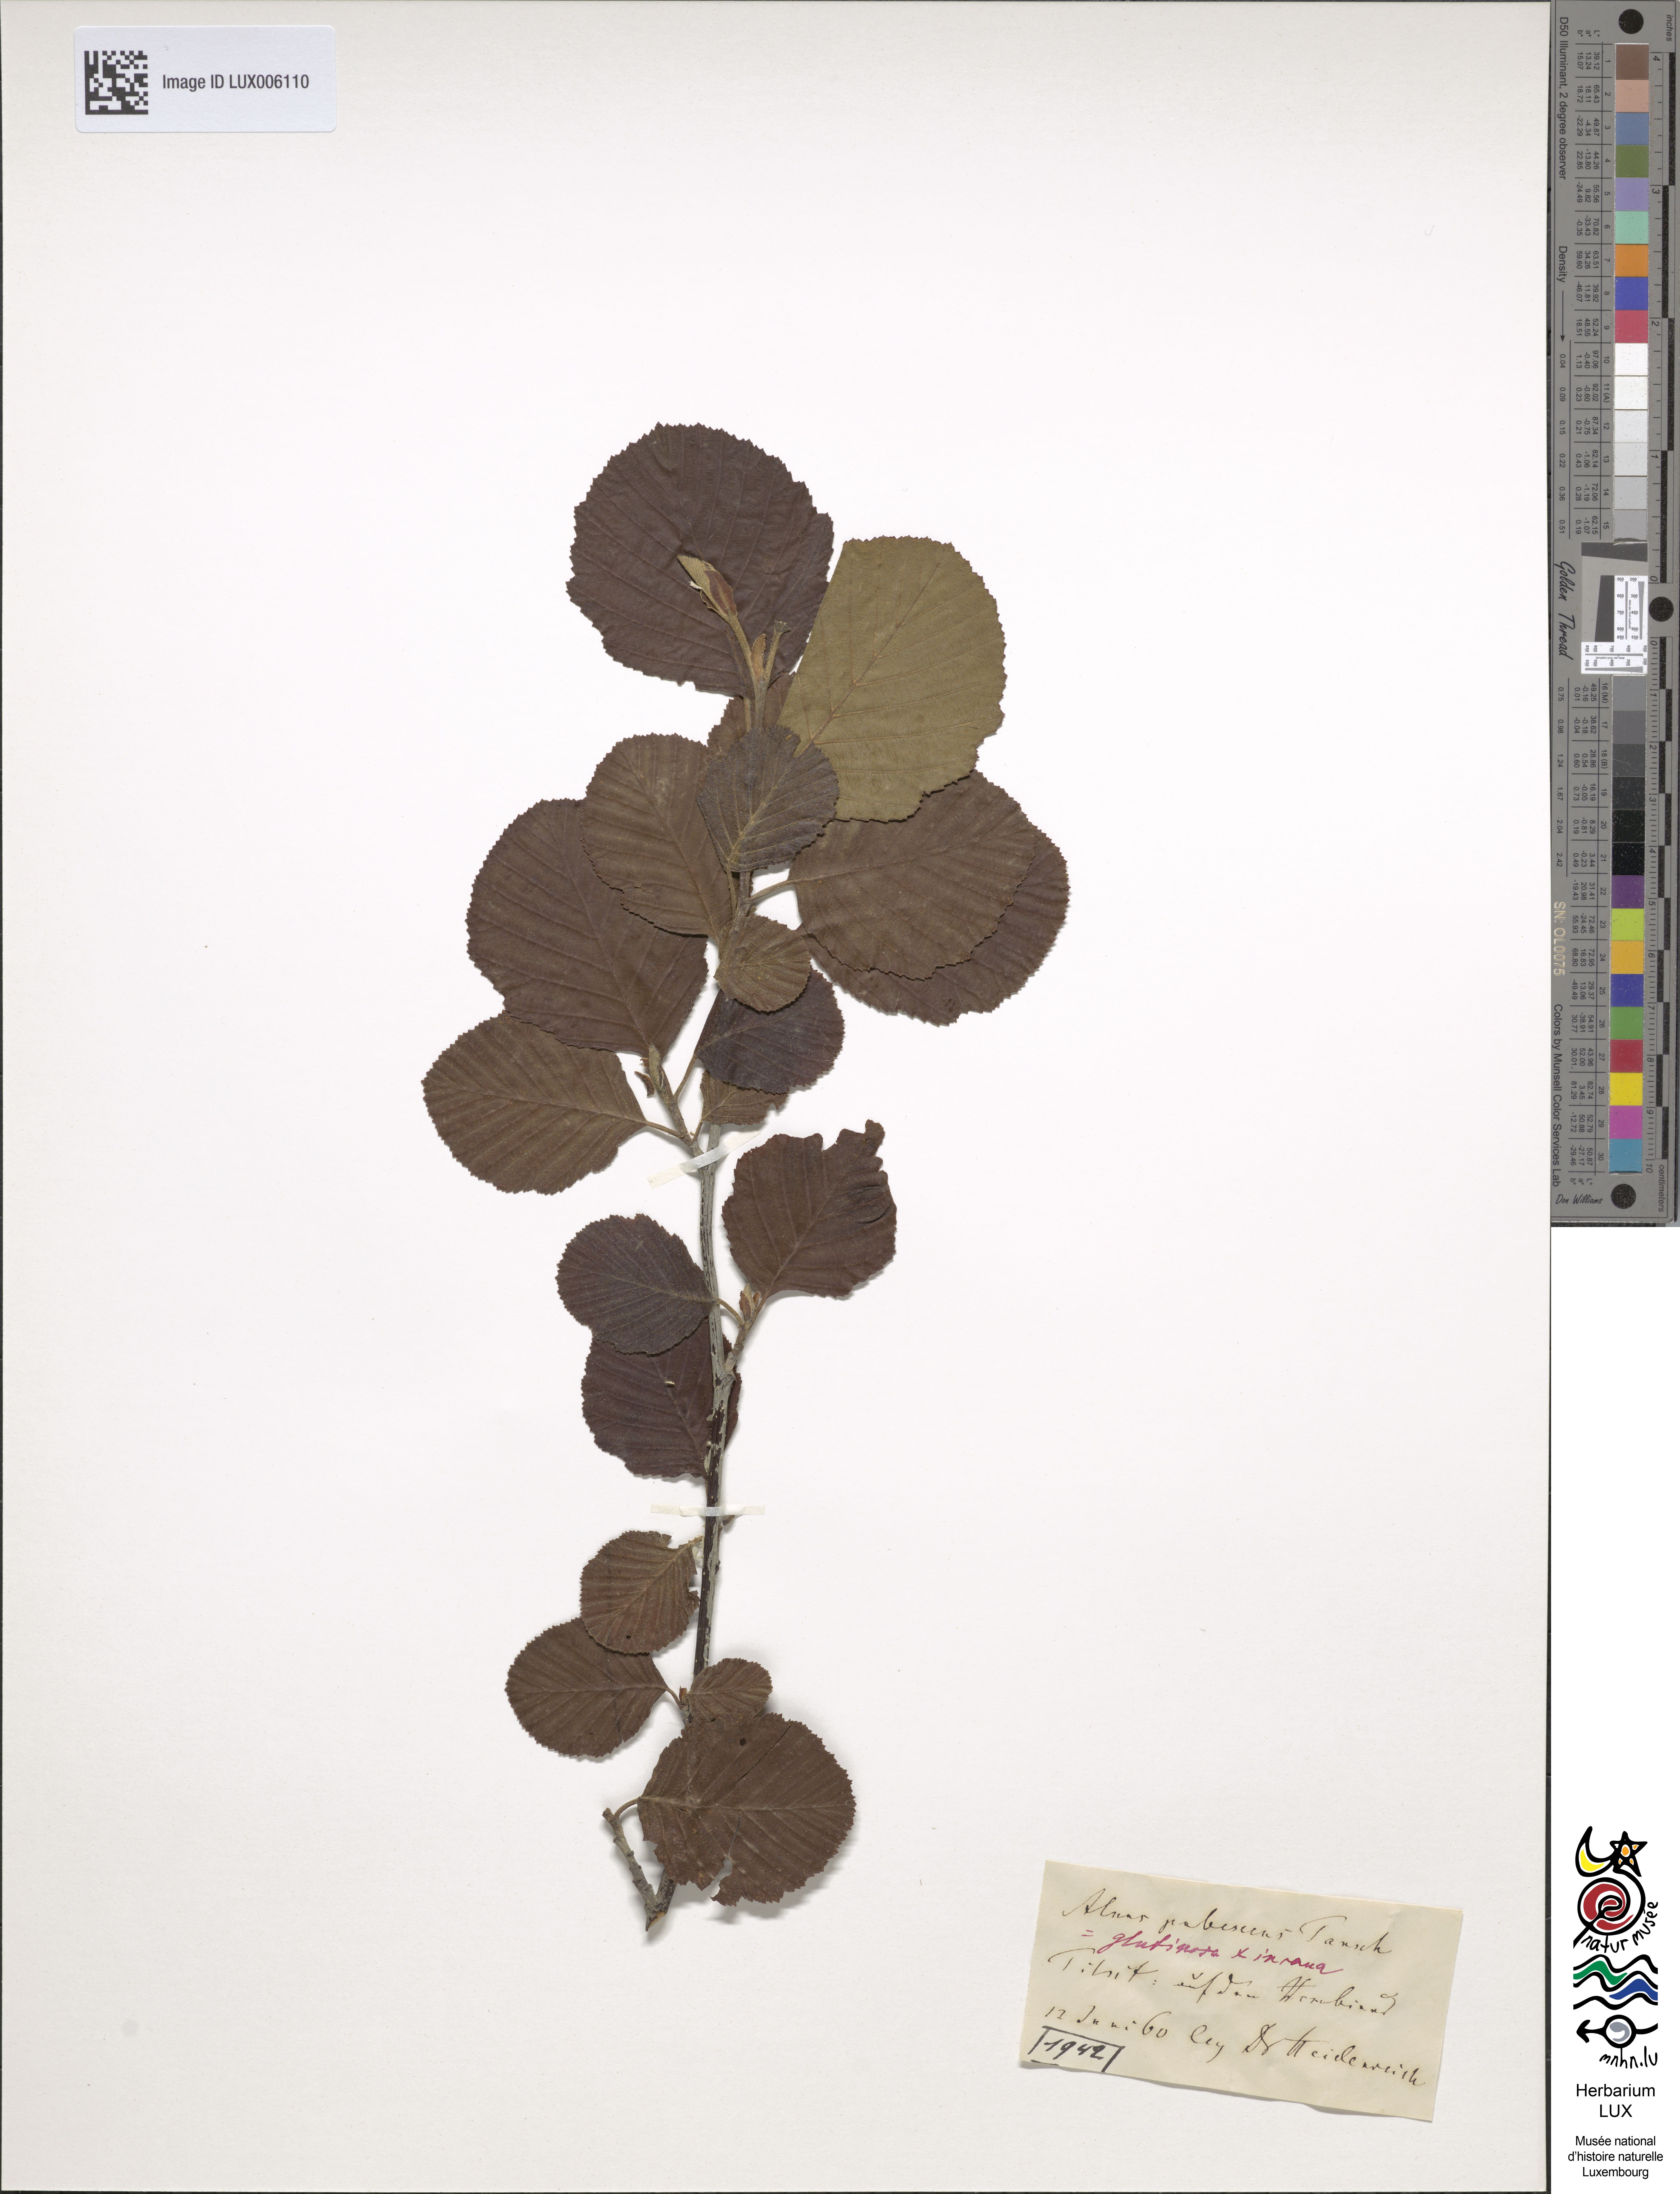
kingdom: Plantae
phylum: Tracheophyta
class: Magnoliopsida
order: Fagales
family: Betulaceae
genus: Alnus
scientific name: Alnus pubescens
